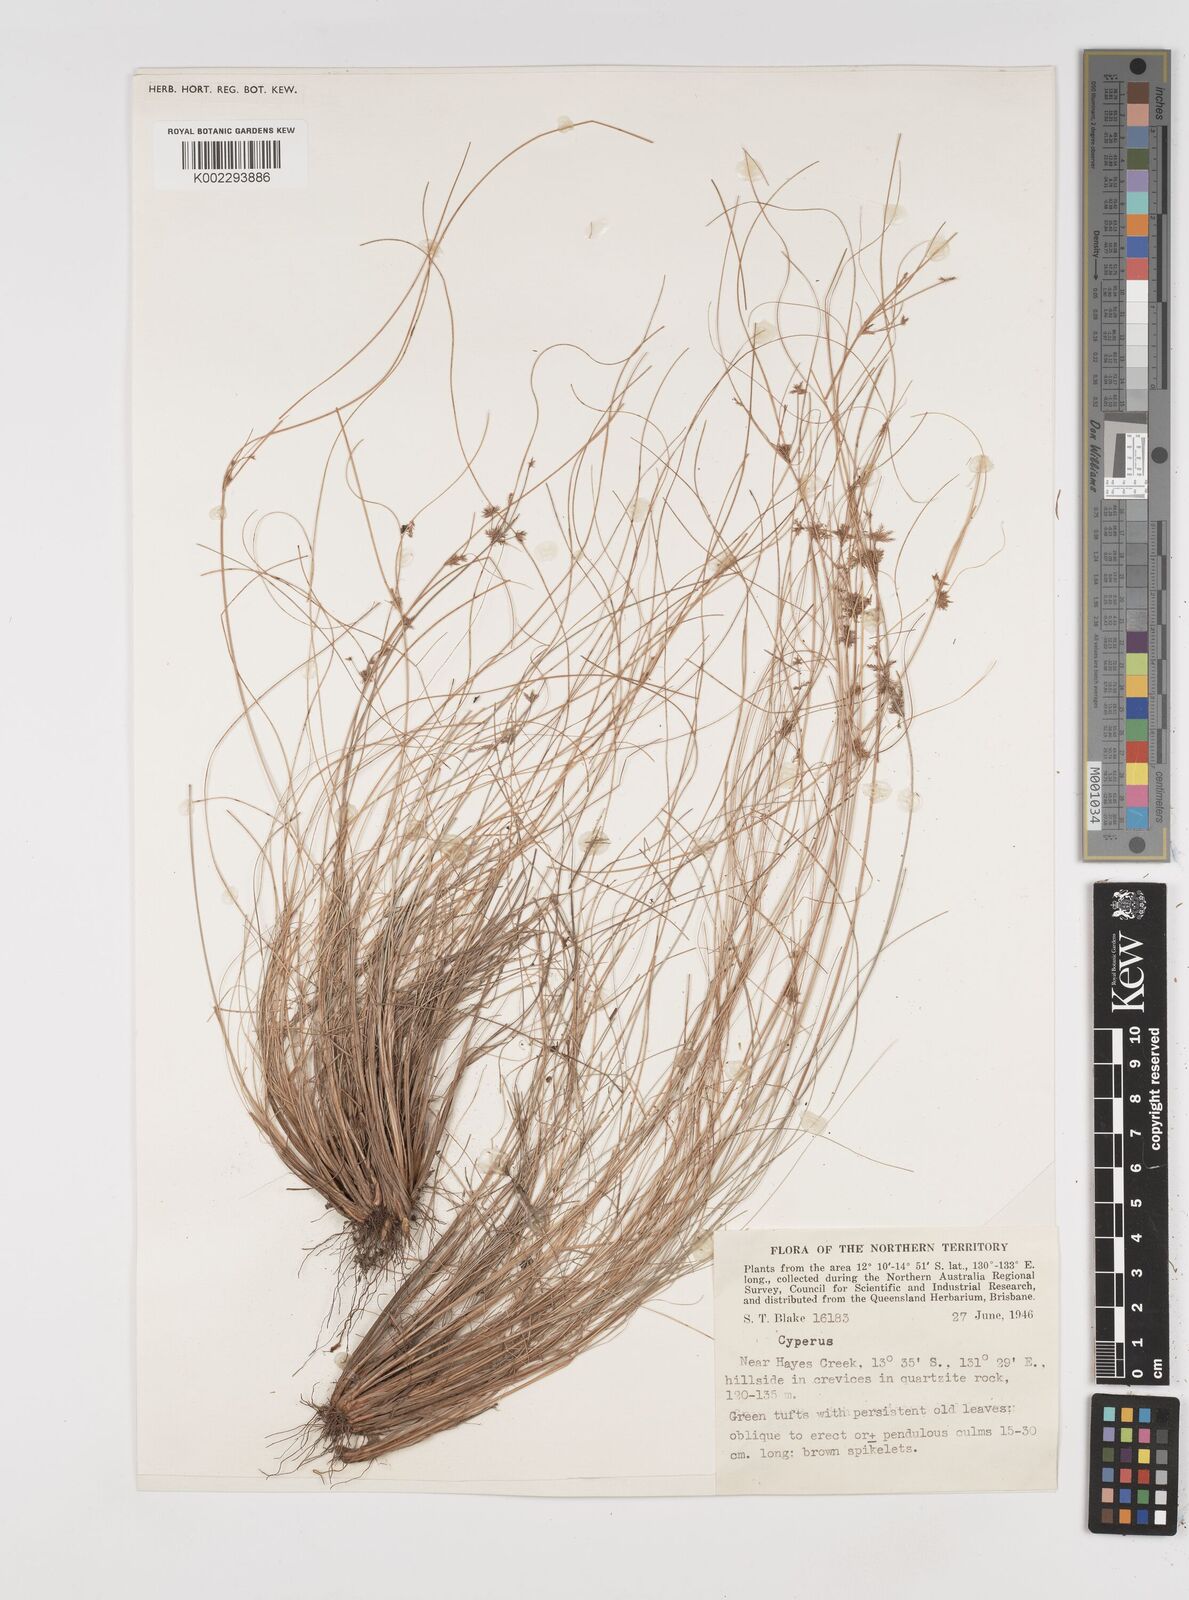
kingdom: Plantae
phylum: Tracheophyta
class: Liliopsida
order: Poales
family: Cyperaceae
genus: Cyperus
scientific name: Cyperus
